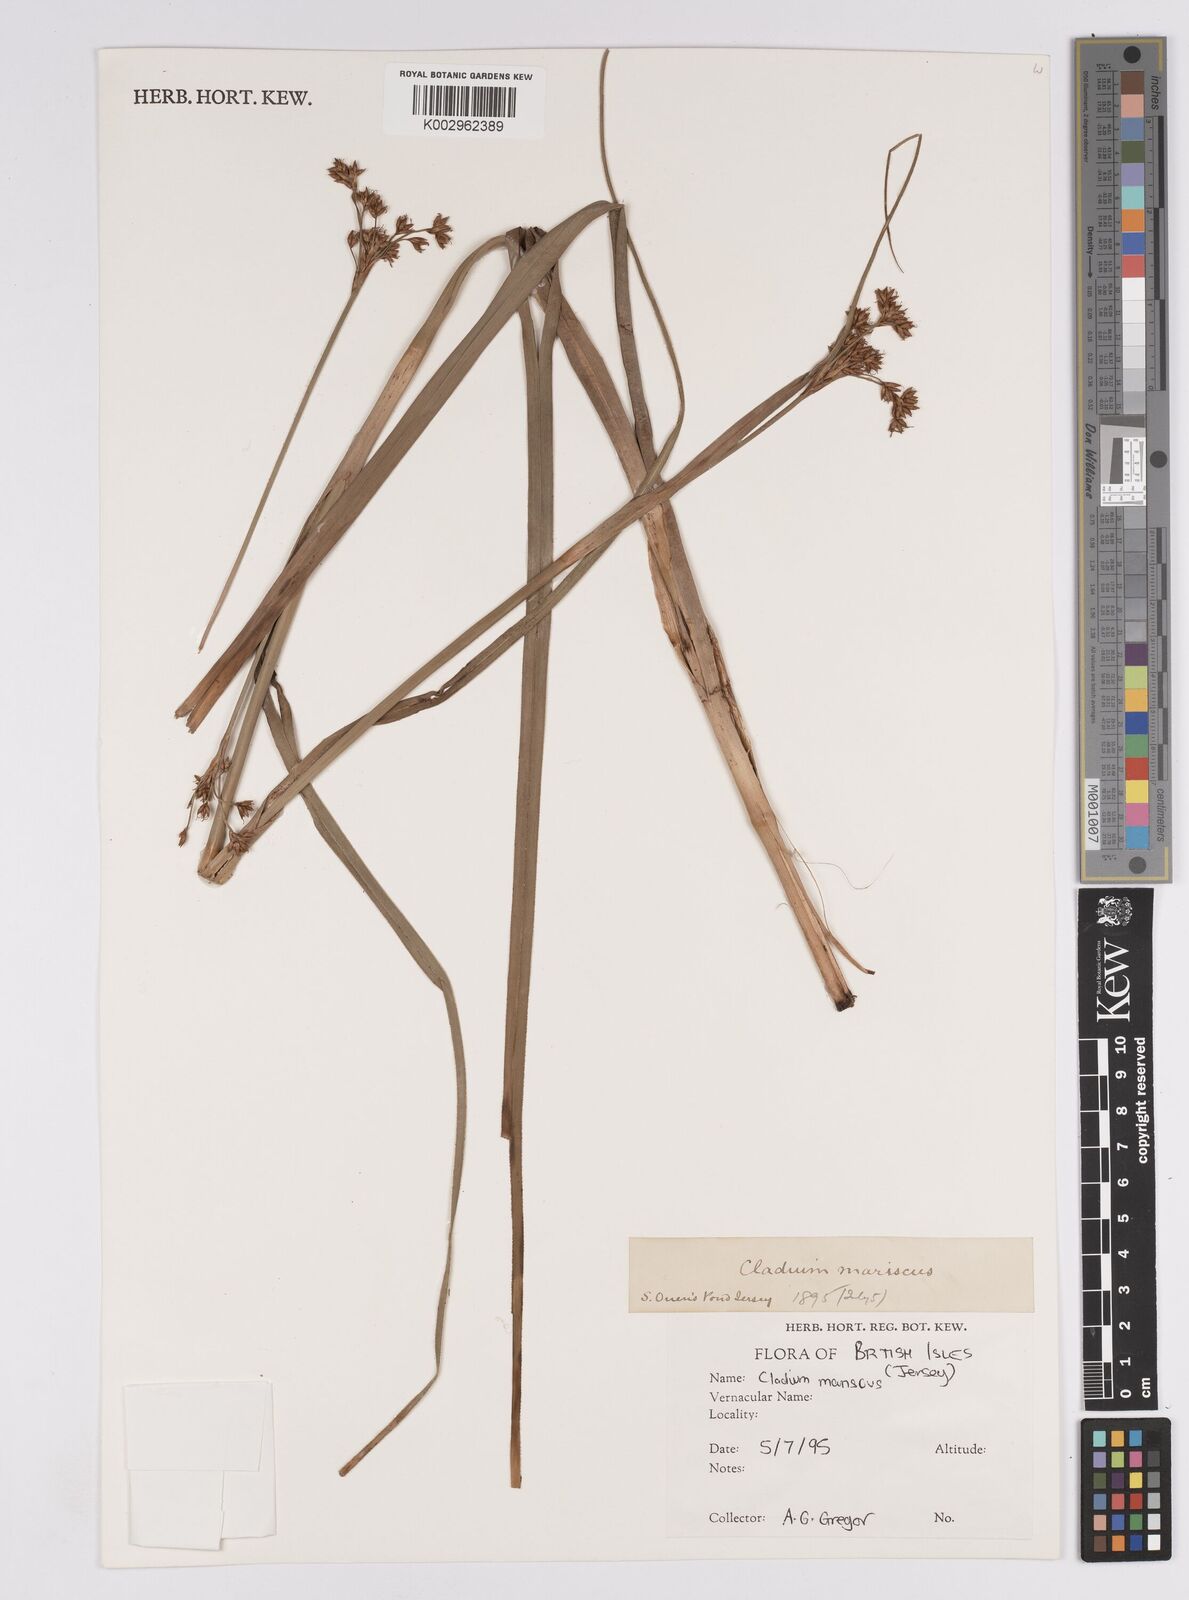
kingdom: Plantae
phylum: Tracheophyta
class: Liliopsida
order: Poales
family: Cyperaceae
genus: Cladium
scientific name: Cladium mariscus
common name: Great fen-sedge
